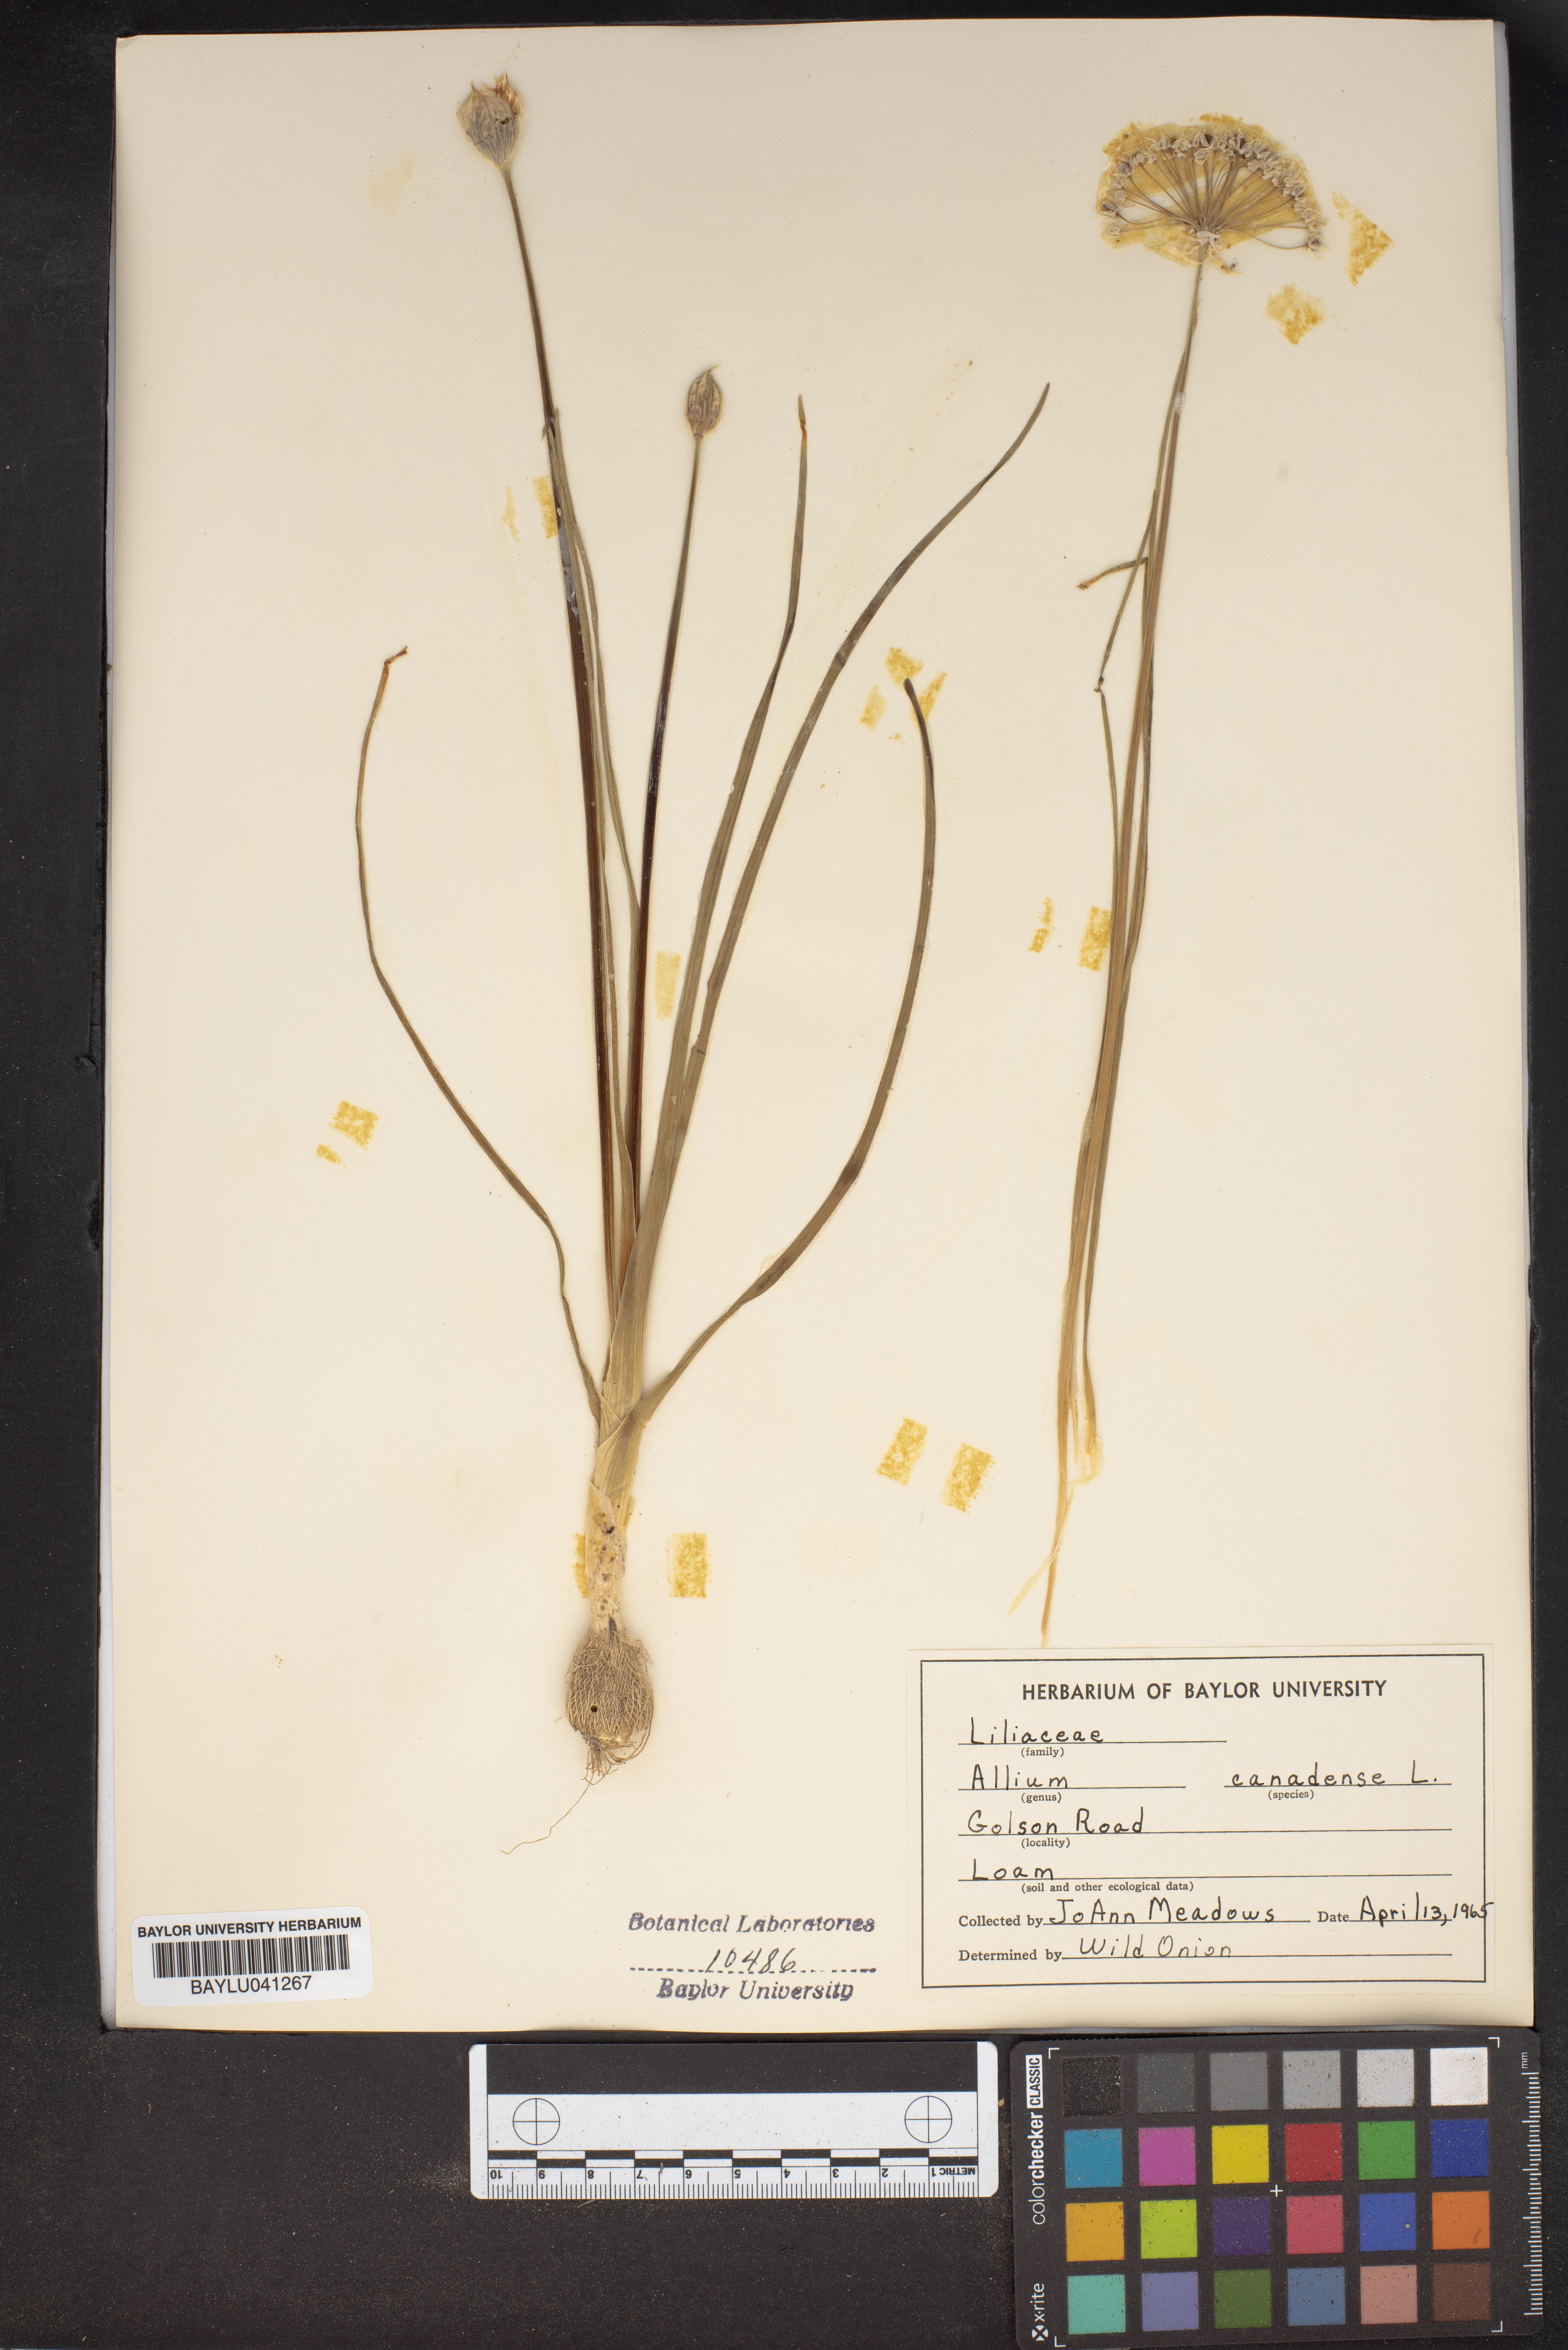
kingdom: Plantae
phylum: Tracheophyta
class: Liliopsida
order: Asparagales
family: Amaryllidaceae
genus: Allium
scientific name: Allium canadense
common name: Meadow garlic
